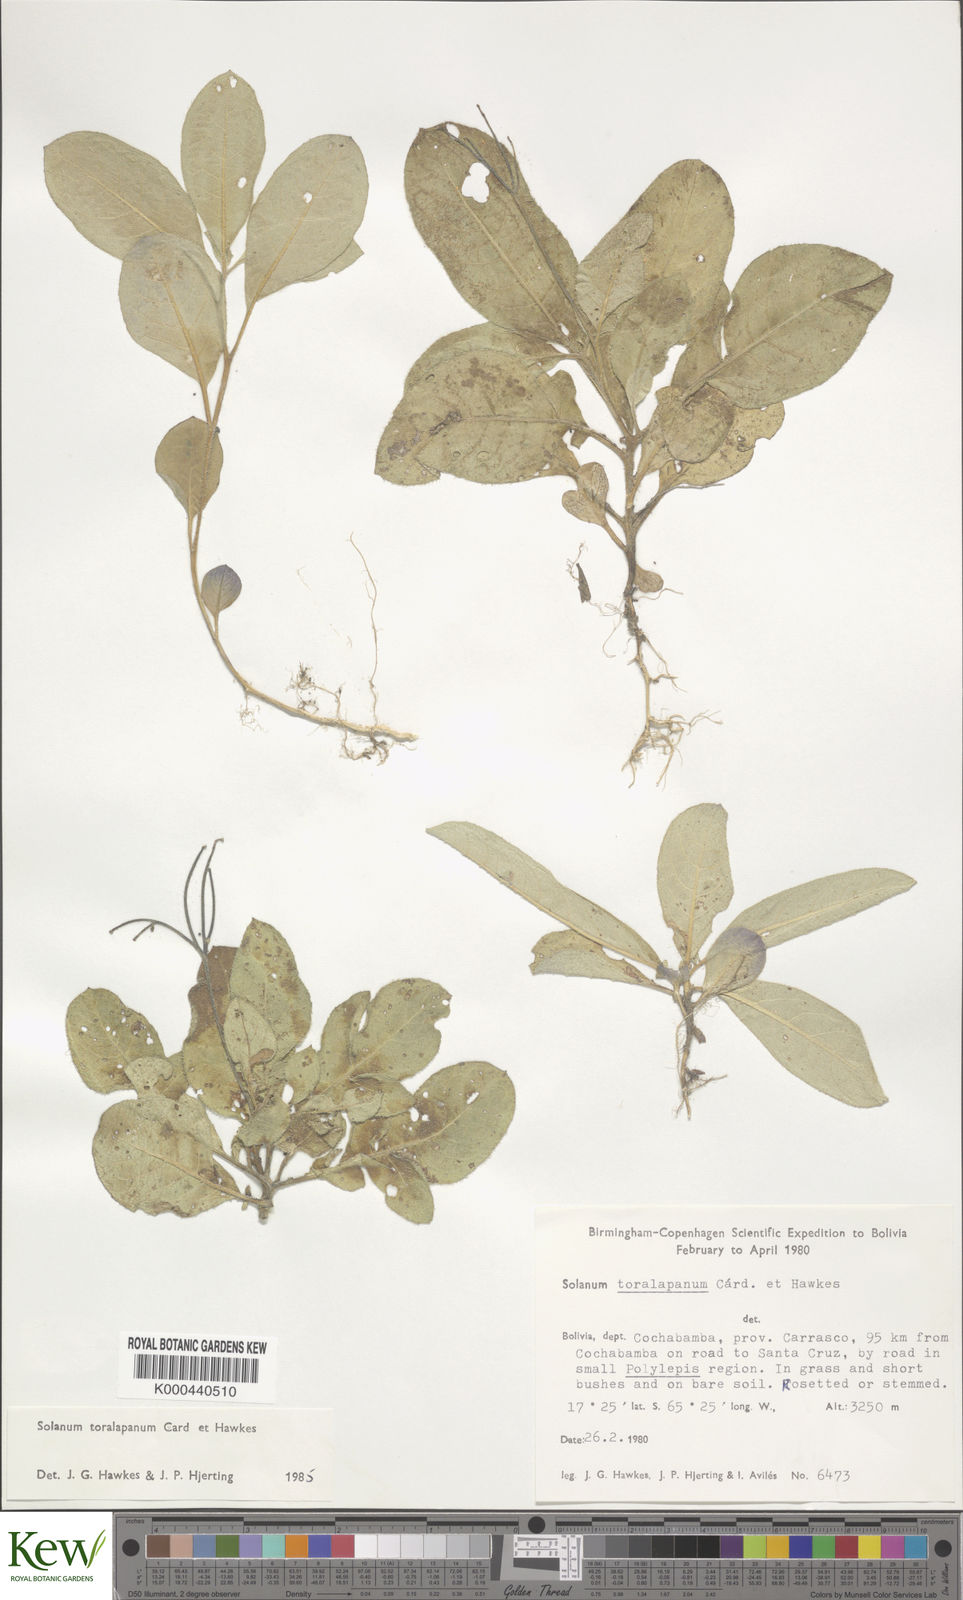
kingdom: Plantae
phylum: Tracheophyta
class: Magnoliopsida
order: Solanales
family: Solanaceae
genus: Solanum
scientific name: Solanum boliviense
